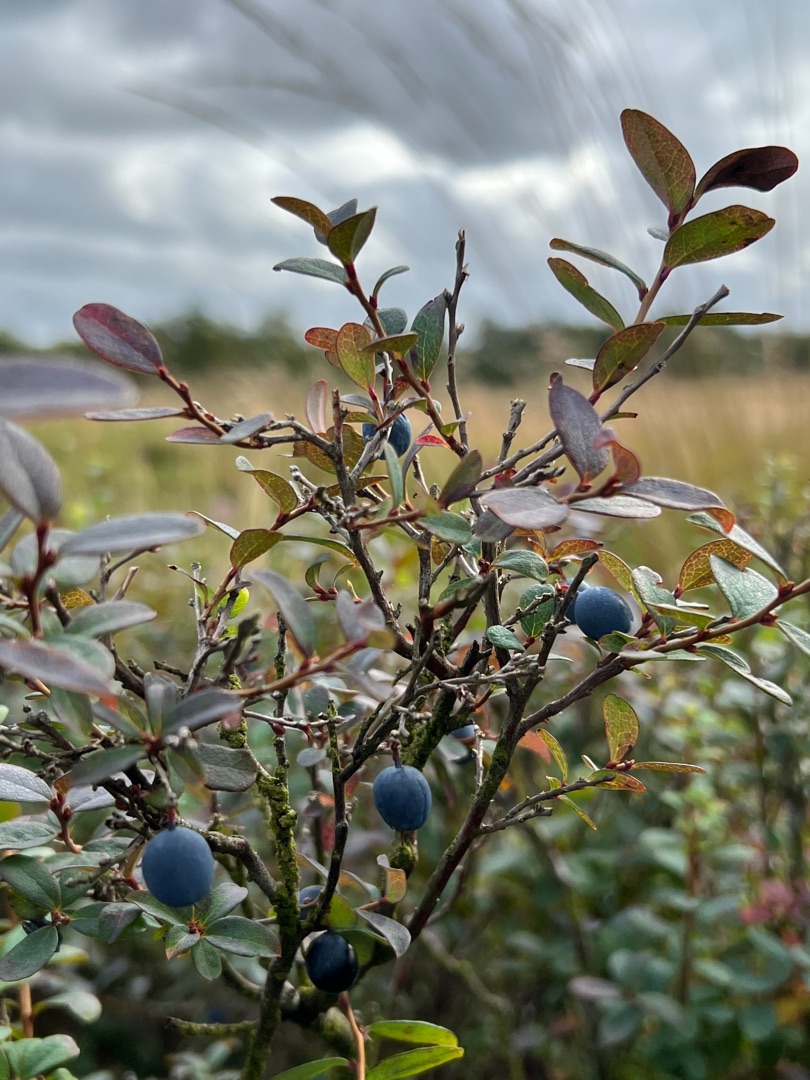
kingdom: Plantae
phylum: Tracheophyta
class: Magnoliopsida
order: Ericales
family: Ericaceae
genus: Vaccinium
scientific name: Vaccinium uliginosum
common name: Mose-bølle
